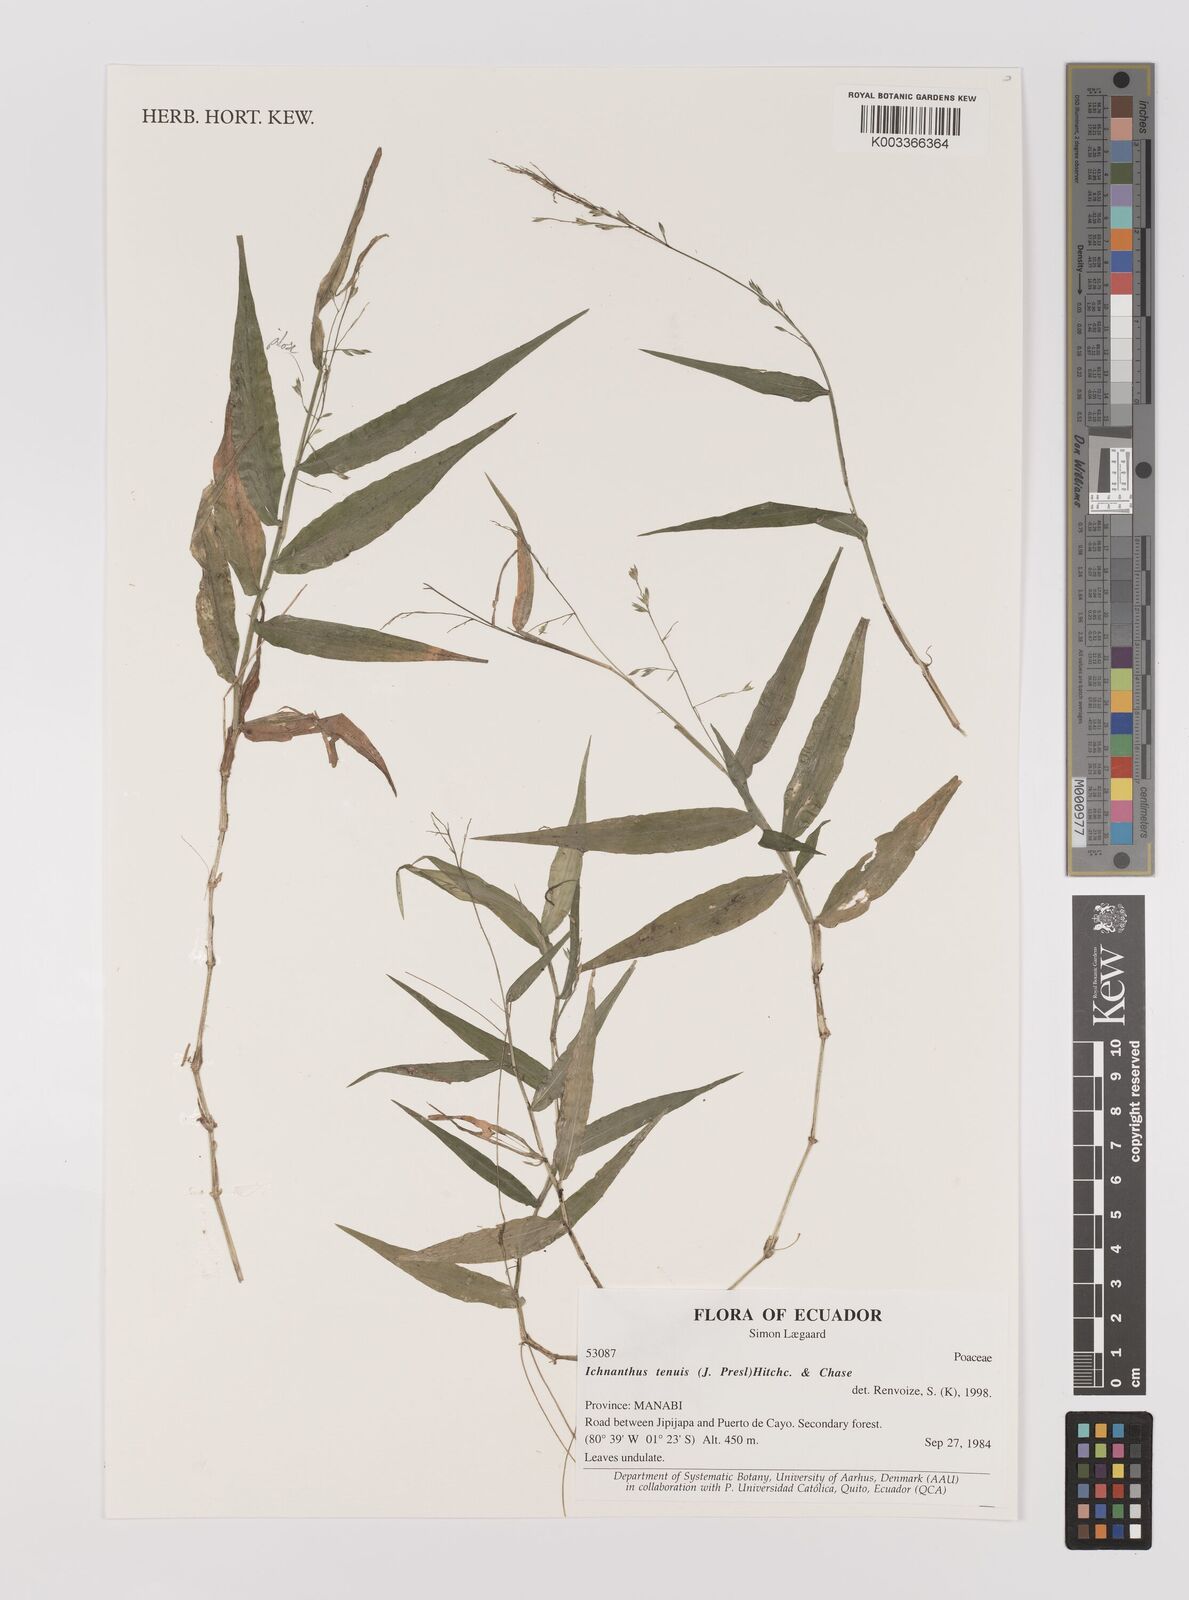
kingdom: Plantae
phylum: Tracheophyta
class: Liliopsida
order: Poales
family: Poaceae
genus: Ichnanthus
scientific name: Ichnanthus tenuis
